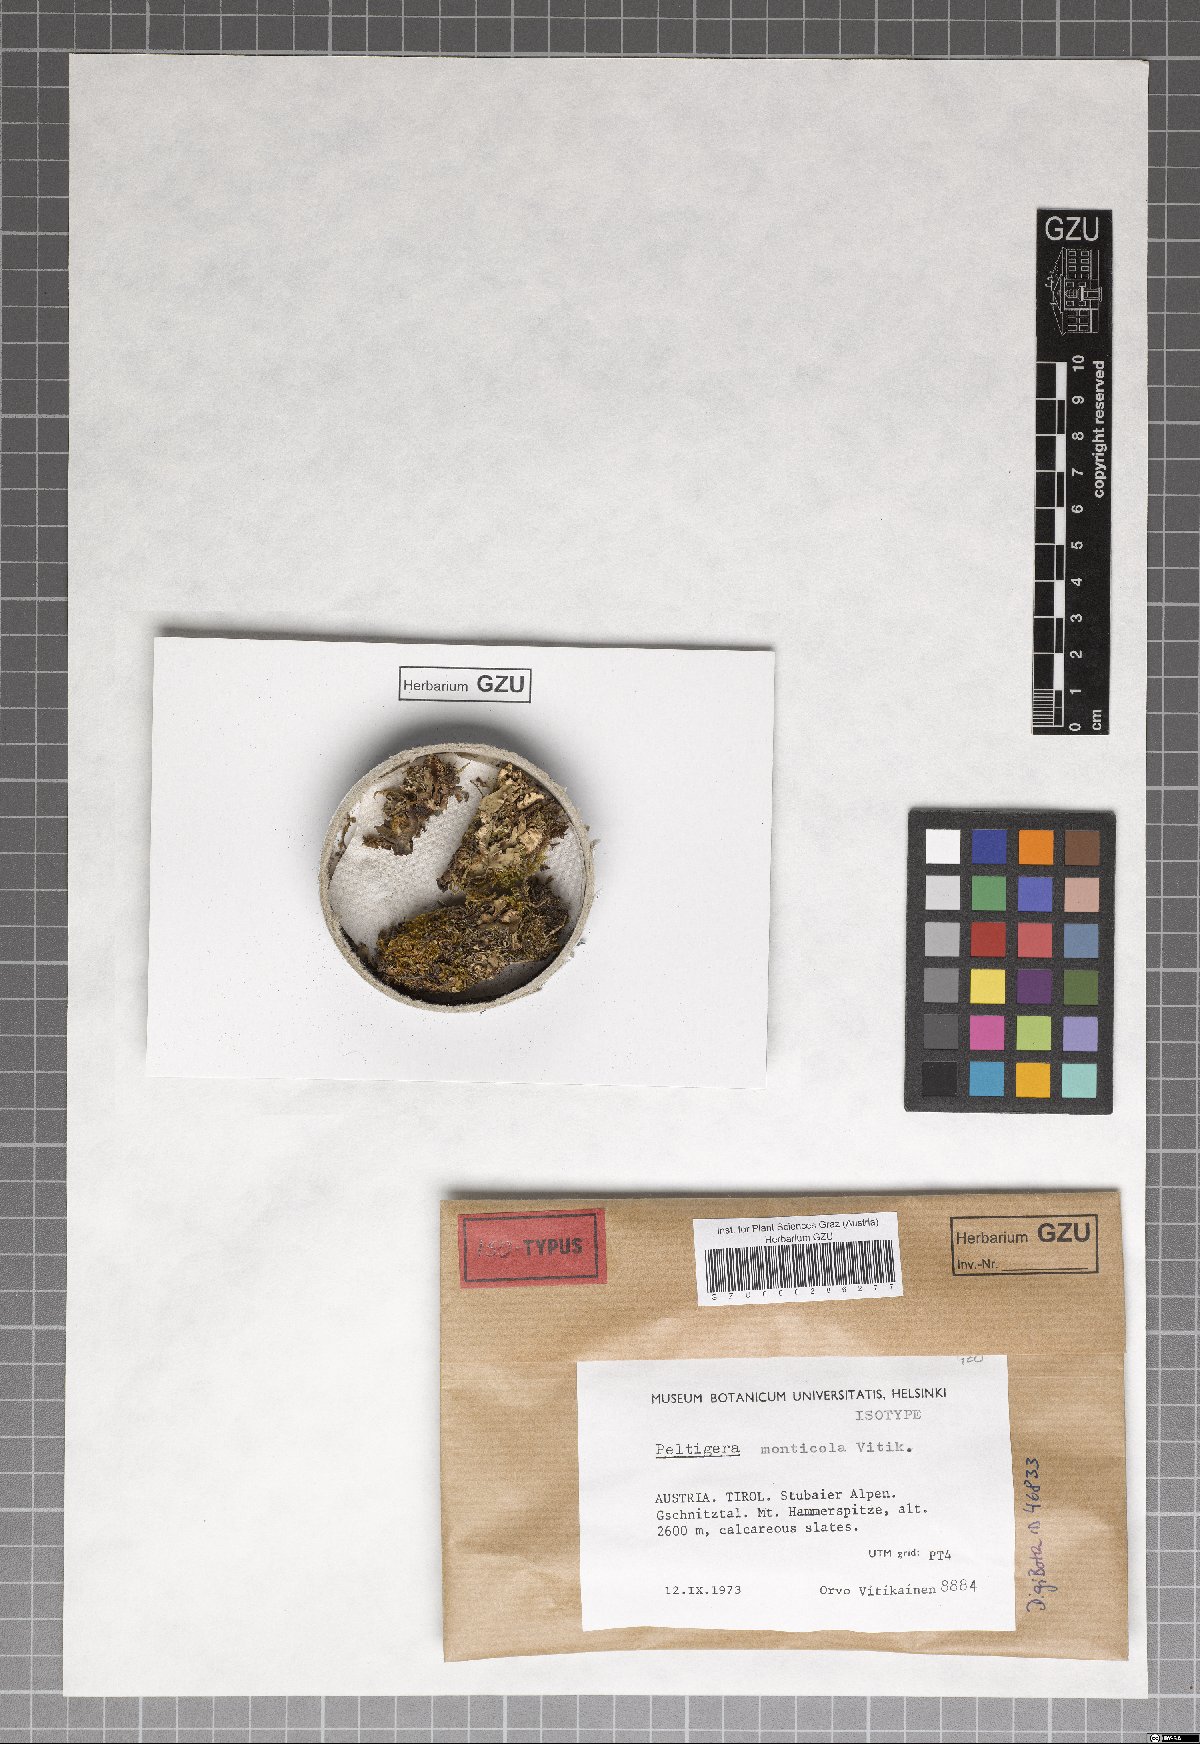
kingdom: Fungi
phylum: Ascomycota
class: Lecanoromycetes
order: Peltigerales
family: Peltigeraceae
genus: Peltigera
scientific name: Peltigera monticola
